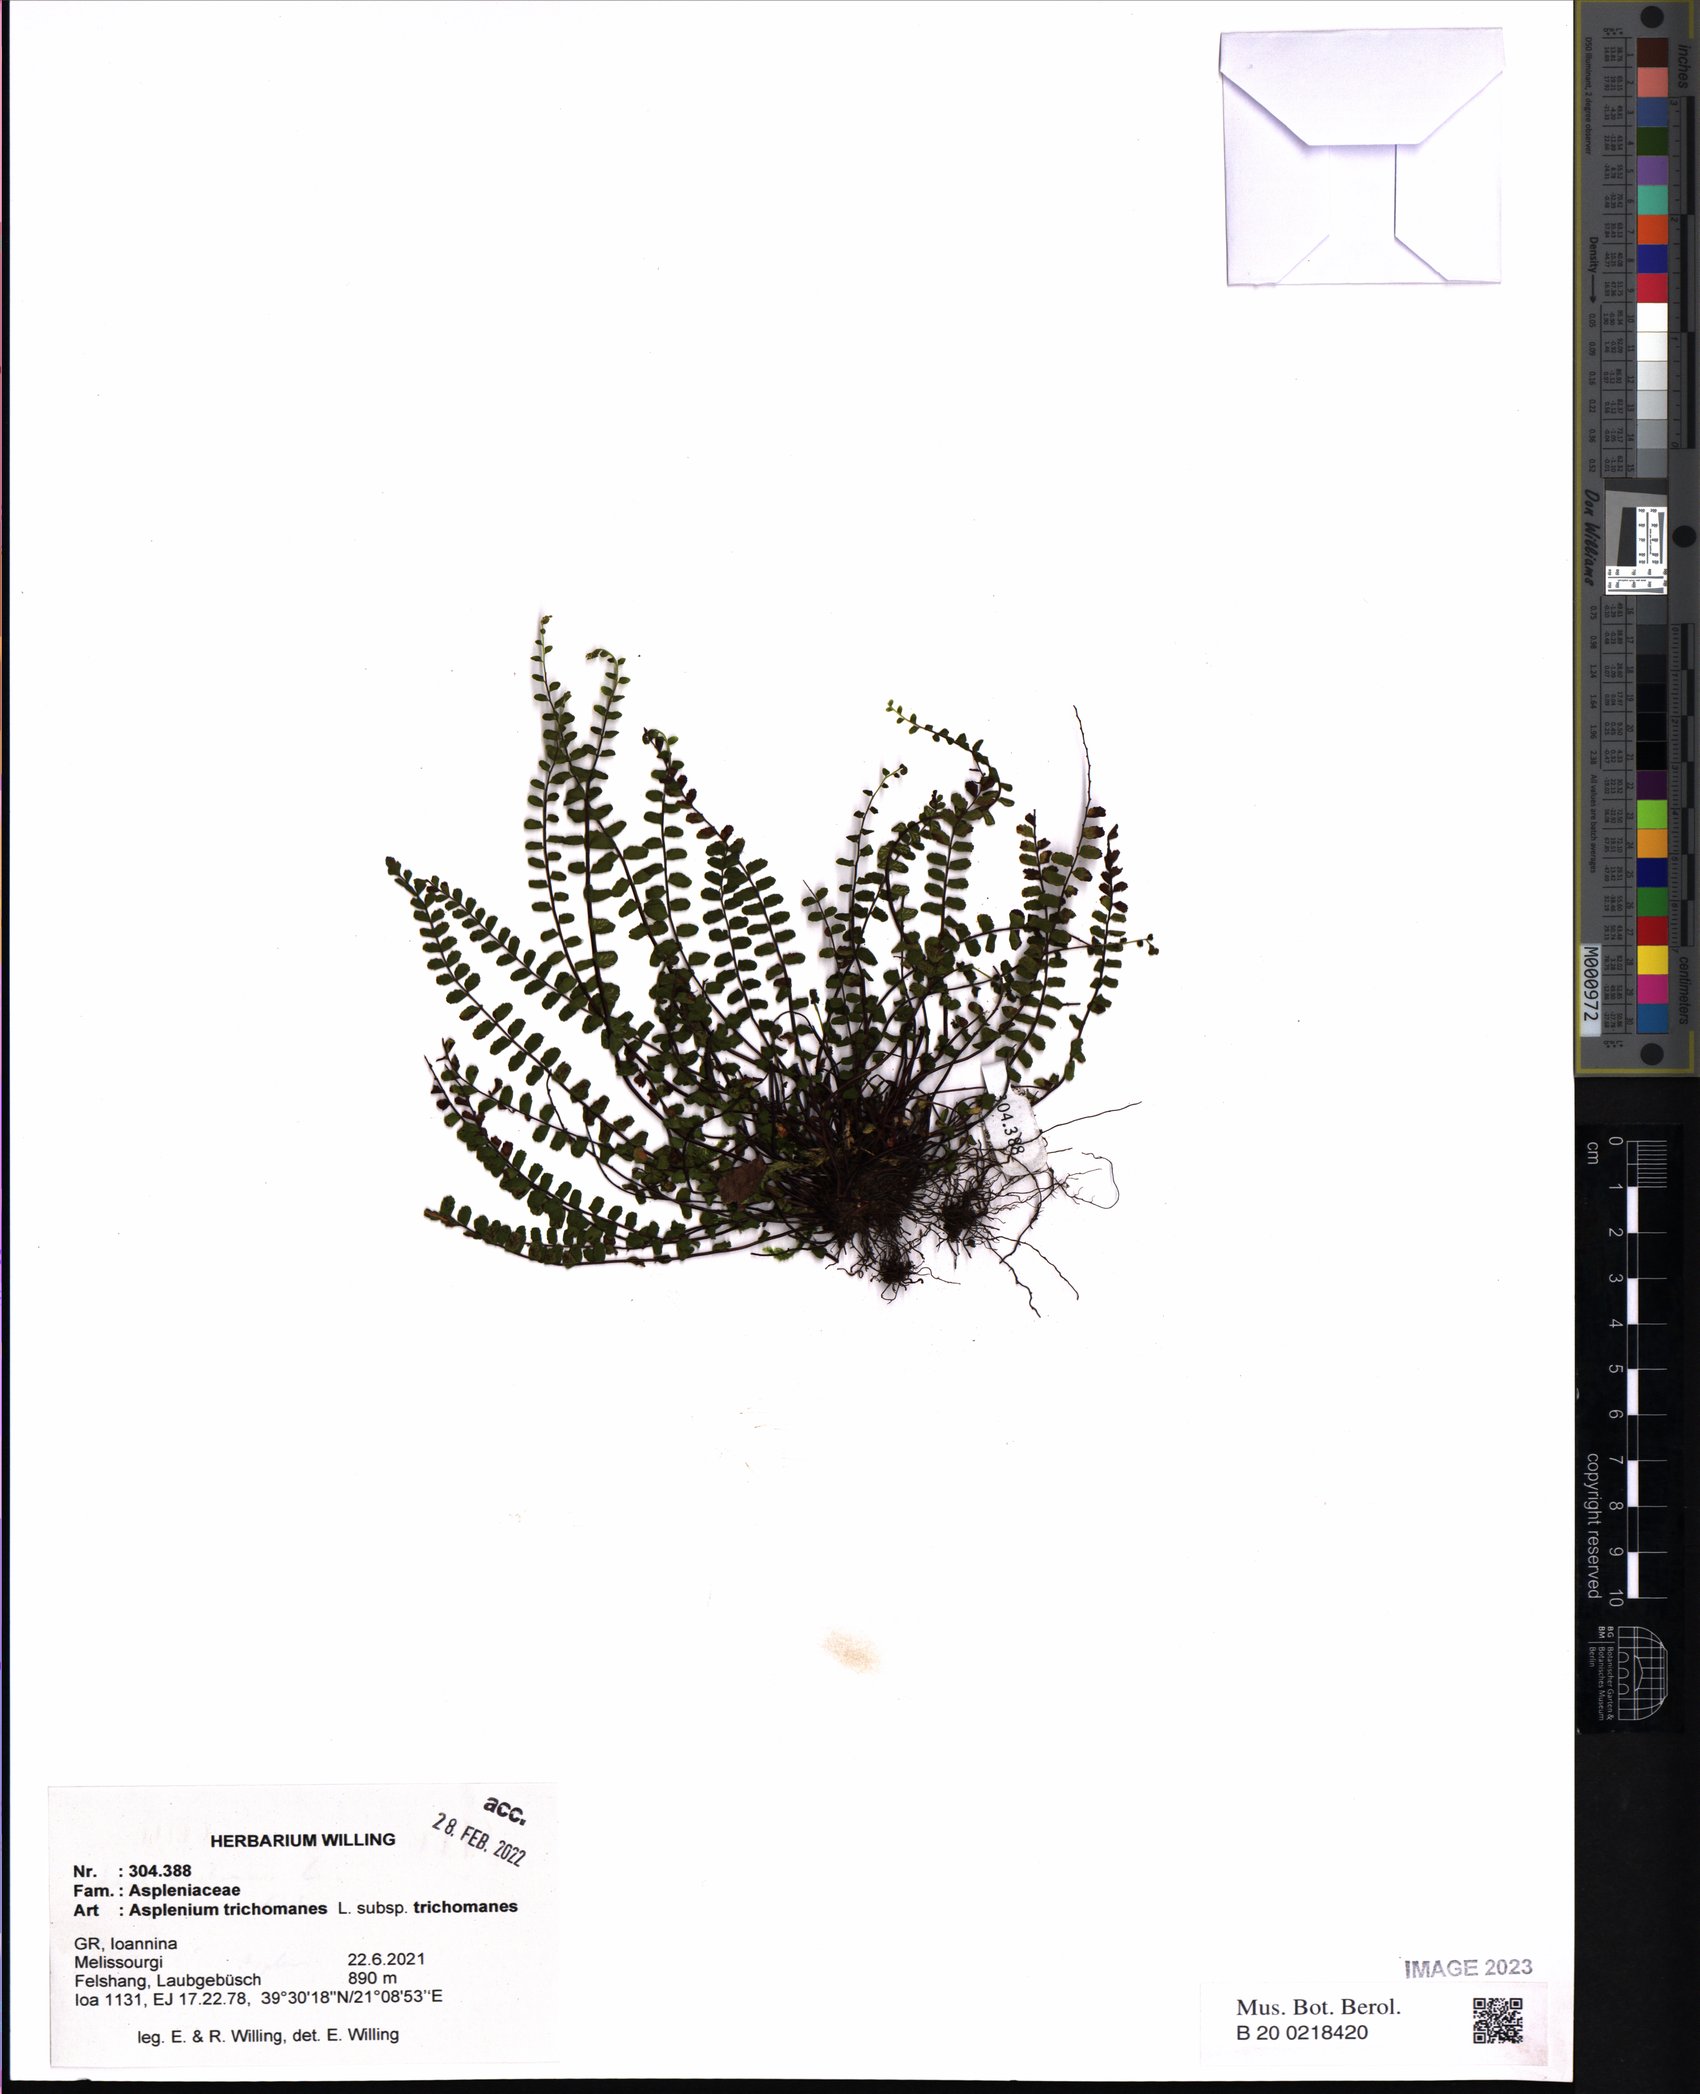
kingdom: Plantae
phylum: Tracheophyta
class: Polypodiopsida
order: Polypodiales
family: Aspleniaceae
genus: Asplenium
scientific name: Asplenium trichomanes
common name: Maidenhair spleenwort
